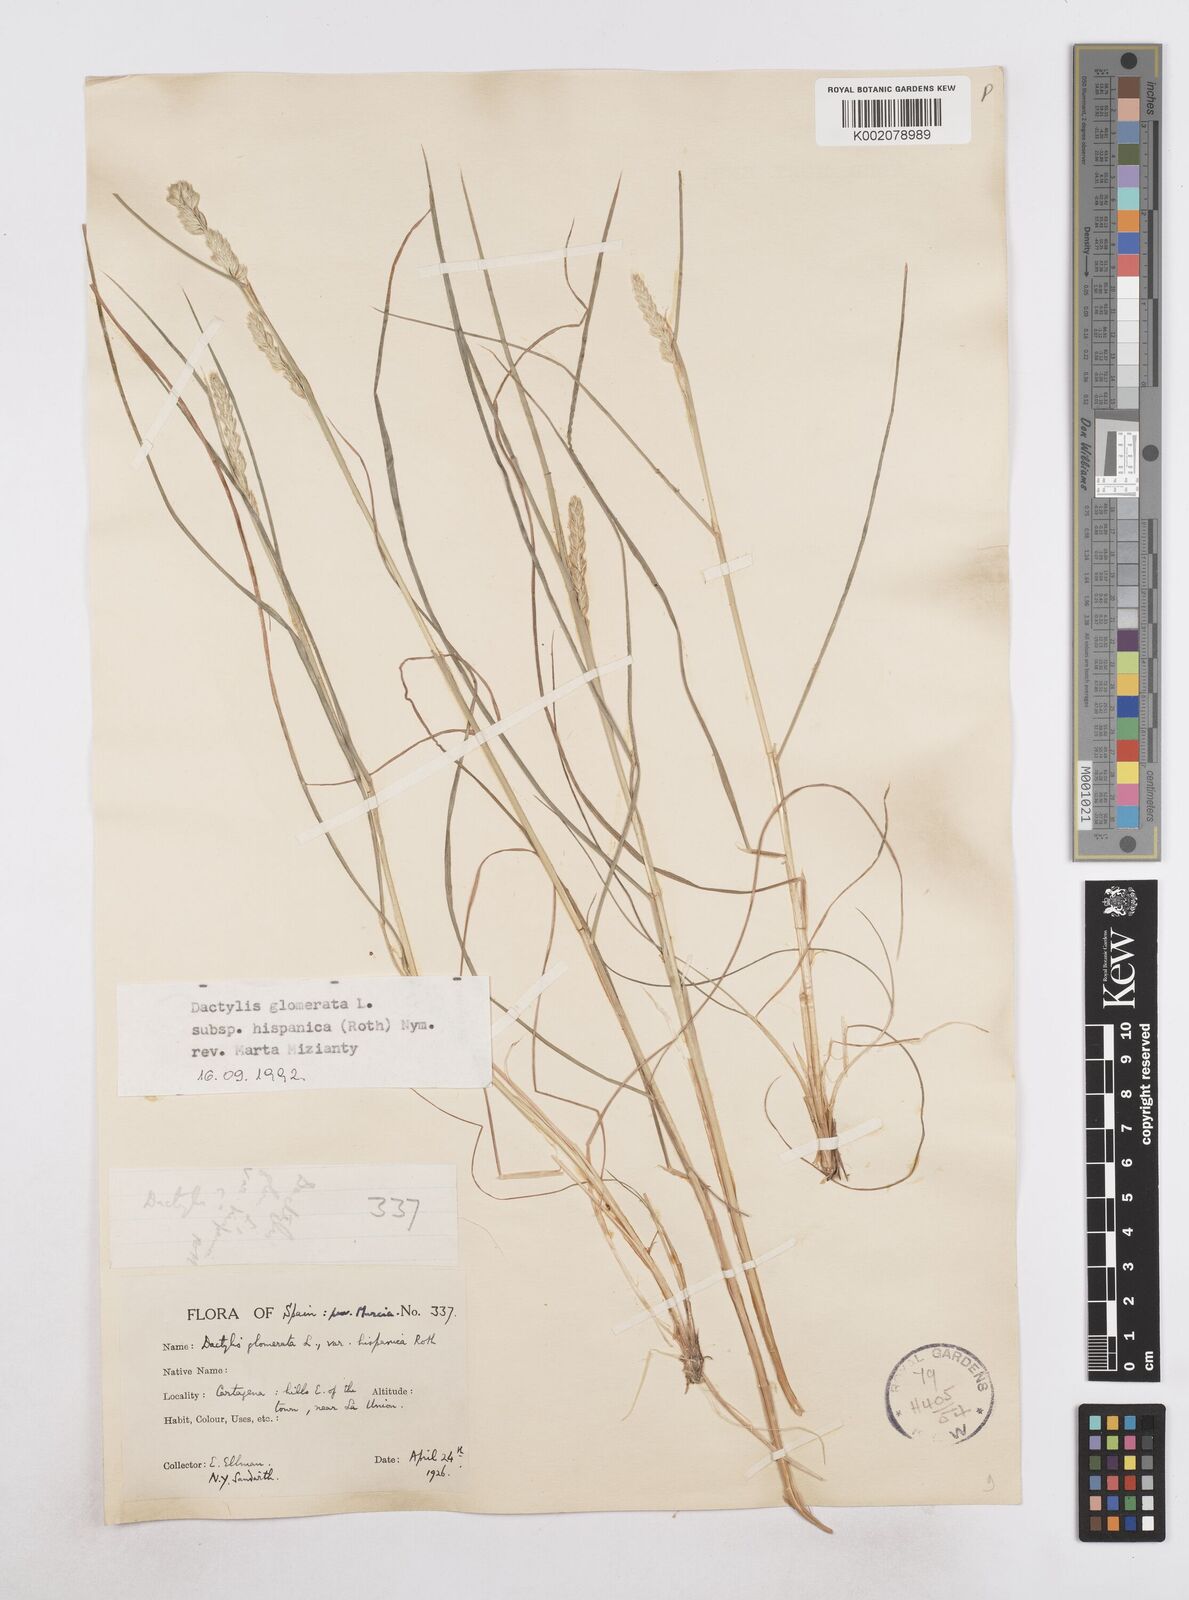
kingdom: Plantae
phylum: Tracheophyta
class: Liliopsida
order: Poales
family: Poaceae
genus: Dactylis
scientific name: Dactylis glomerata
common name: Orchardgrass
